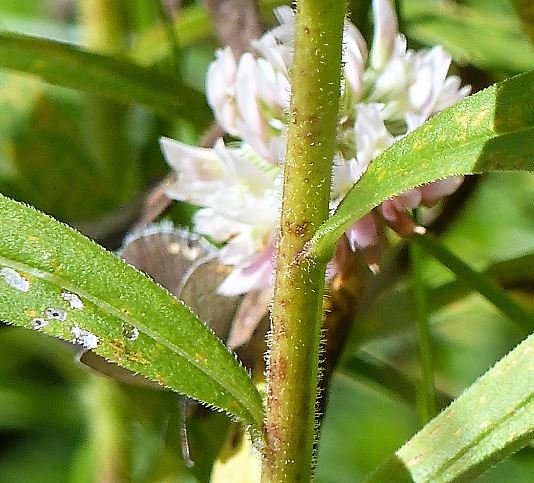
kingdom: Animalia
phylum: Arthropoda
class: Insecta
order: Lepidoptera
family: Lycaenidae
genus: Elkalyce
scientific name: Elkalyce comyntas
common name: Eastern Tailed-Blue
